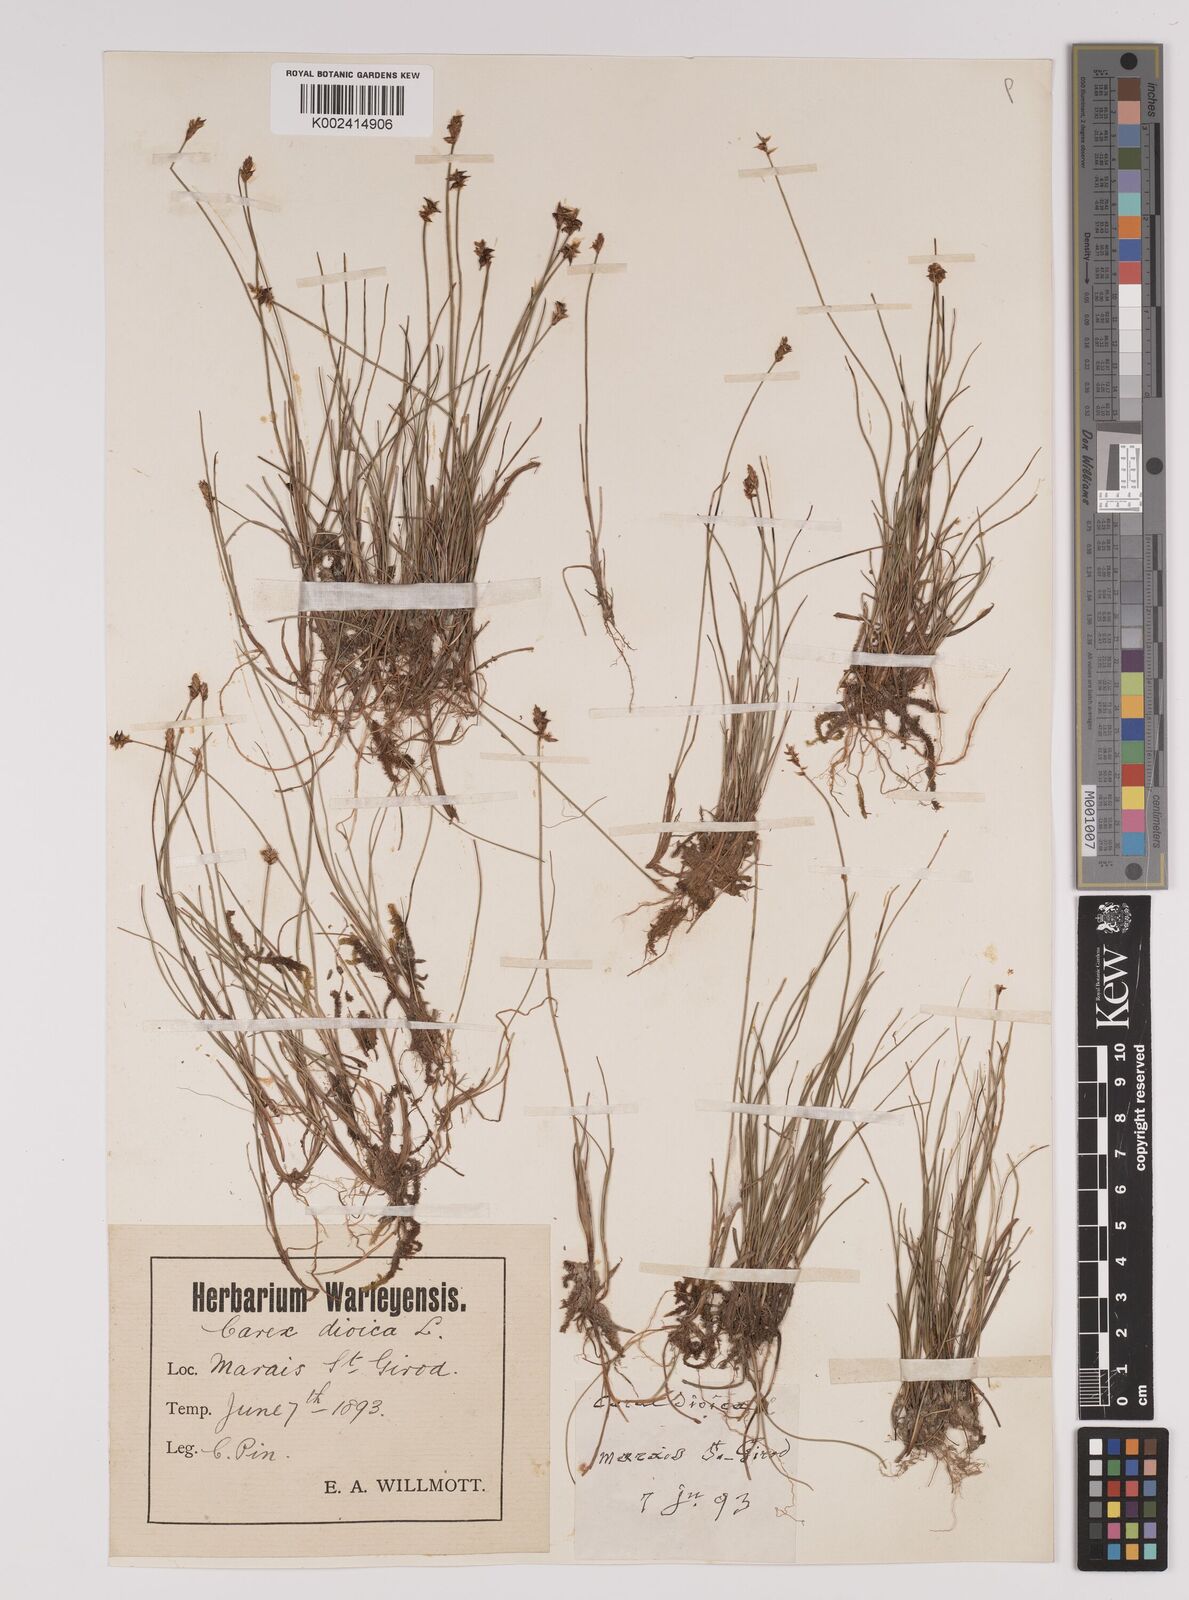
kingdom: Plantae
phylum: Tracheophyta
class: Liliopsida
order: Poales
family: Cyperaceae
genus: Carex
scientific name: Carex dioica
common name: Dioecious sedge
